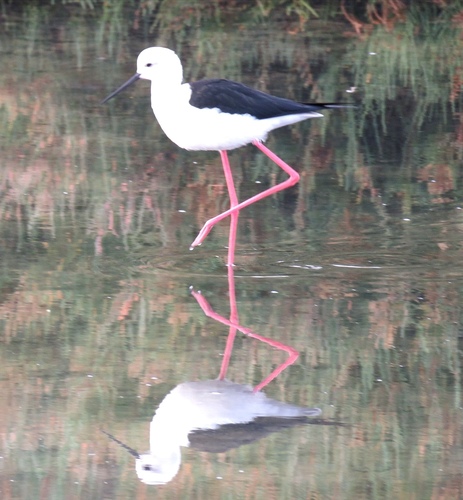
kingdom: Animalia
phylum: Chordata
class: Aves
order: Charadriiformes
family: Recurvirostridae
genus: Himantopus
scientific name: Himantopus himantopus
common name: Black-winged stilt
